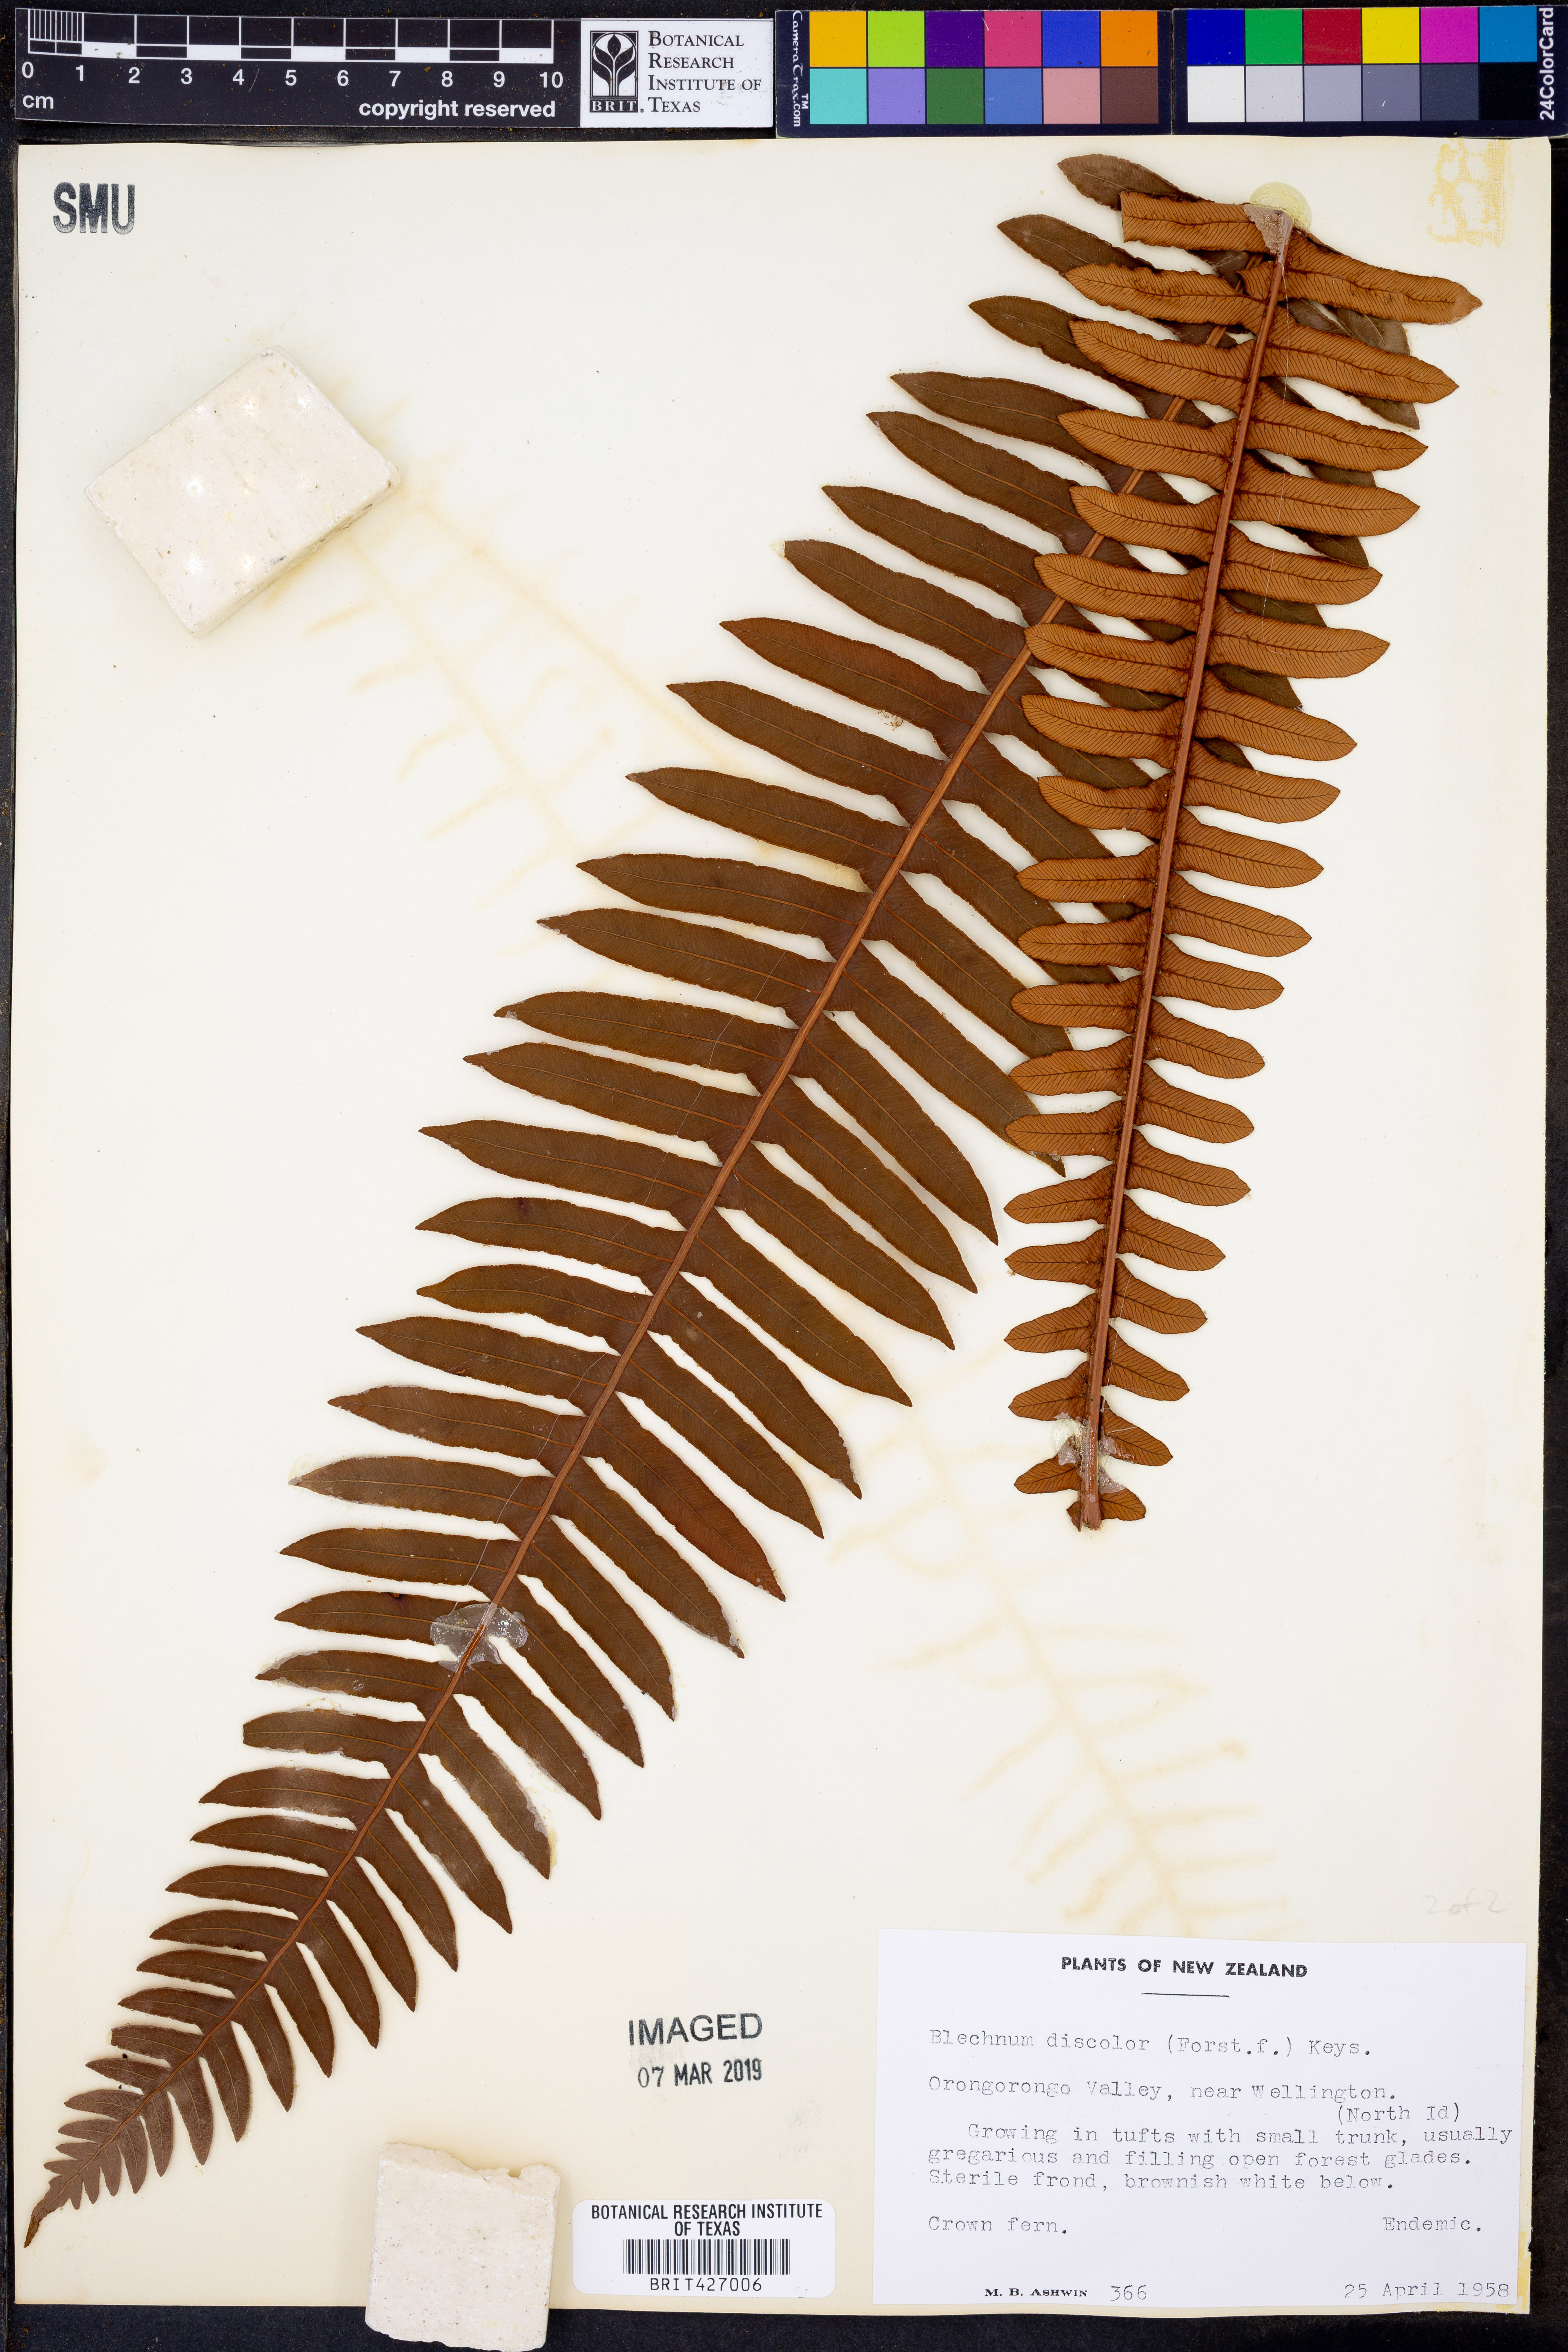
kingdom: Plantae
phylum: Tracheophyta
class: Polypodiopsida
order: Polypodiales
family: Blechnaceae
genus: Lomaria
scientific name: Lomaria discolor
